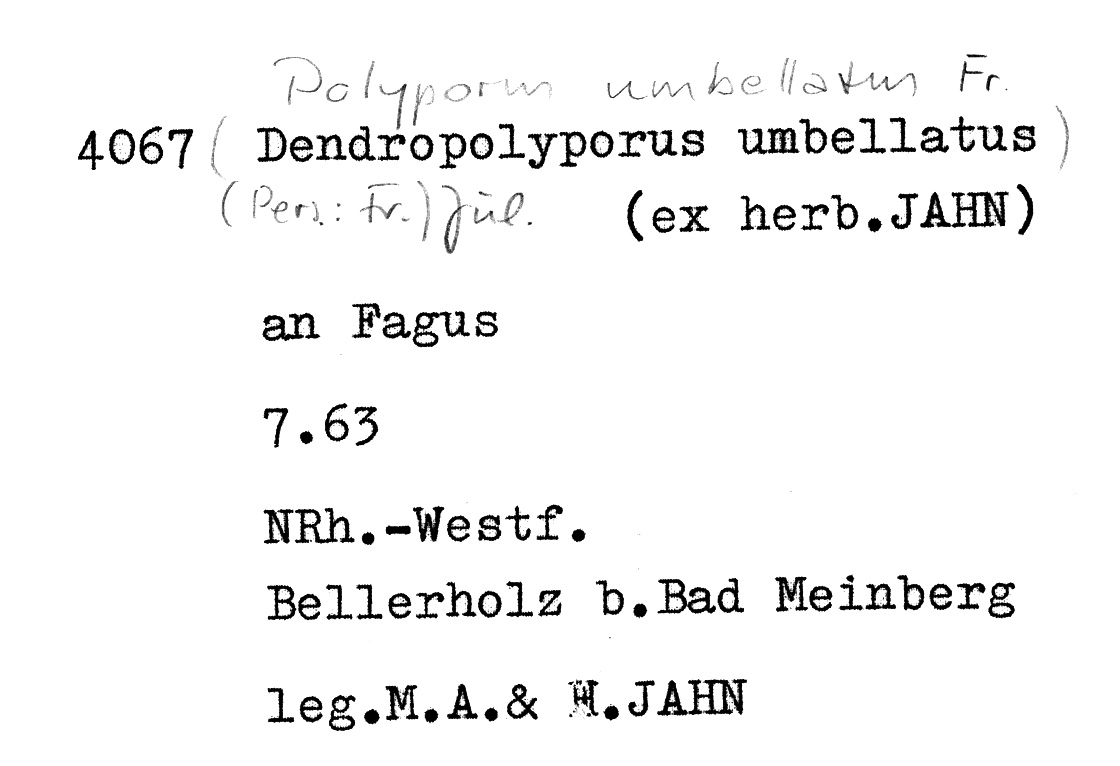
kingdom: Plantae
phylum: Tracheophyta
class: Magnoliopsida
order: Fagales
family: Fagaceae
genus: Fagus
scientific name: Fagus sylvatica
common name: Beech
